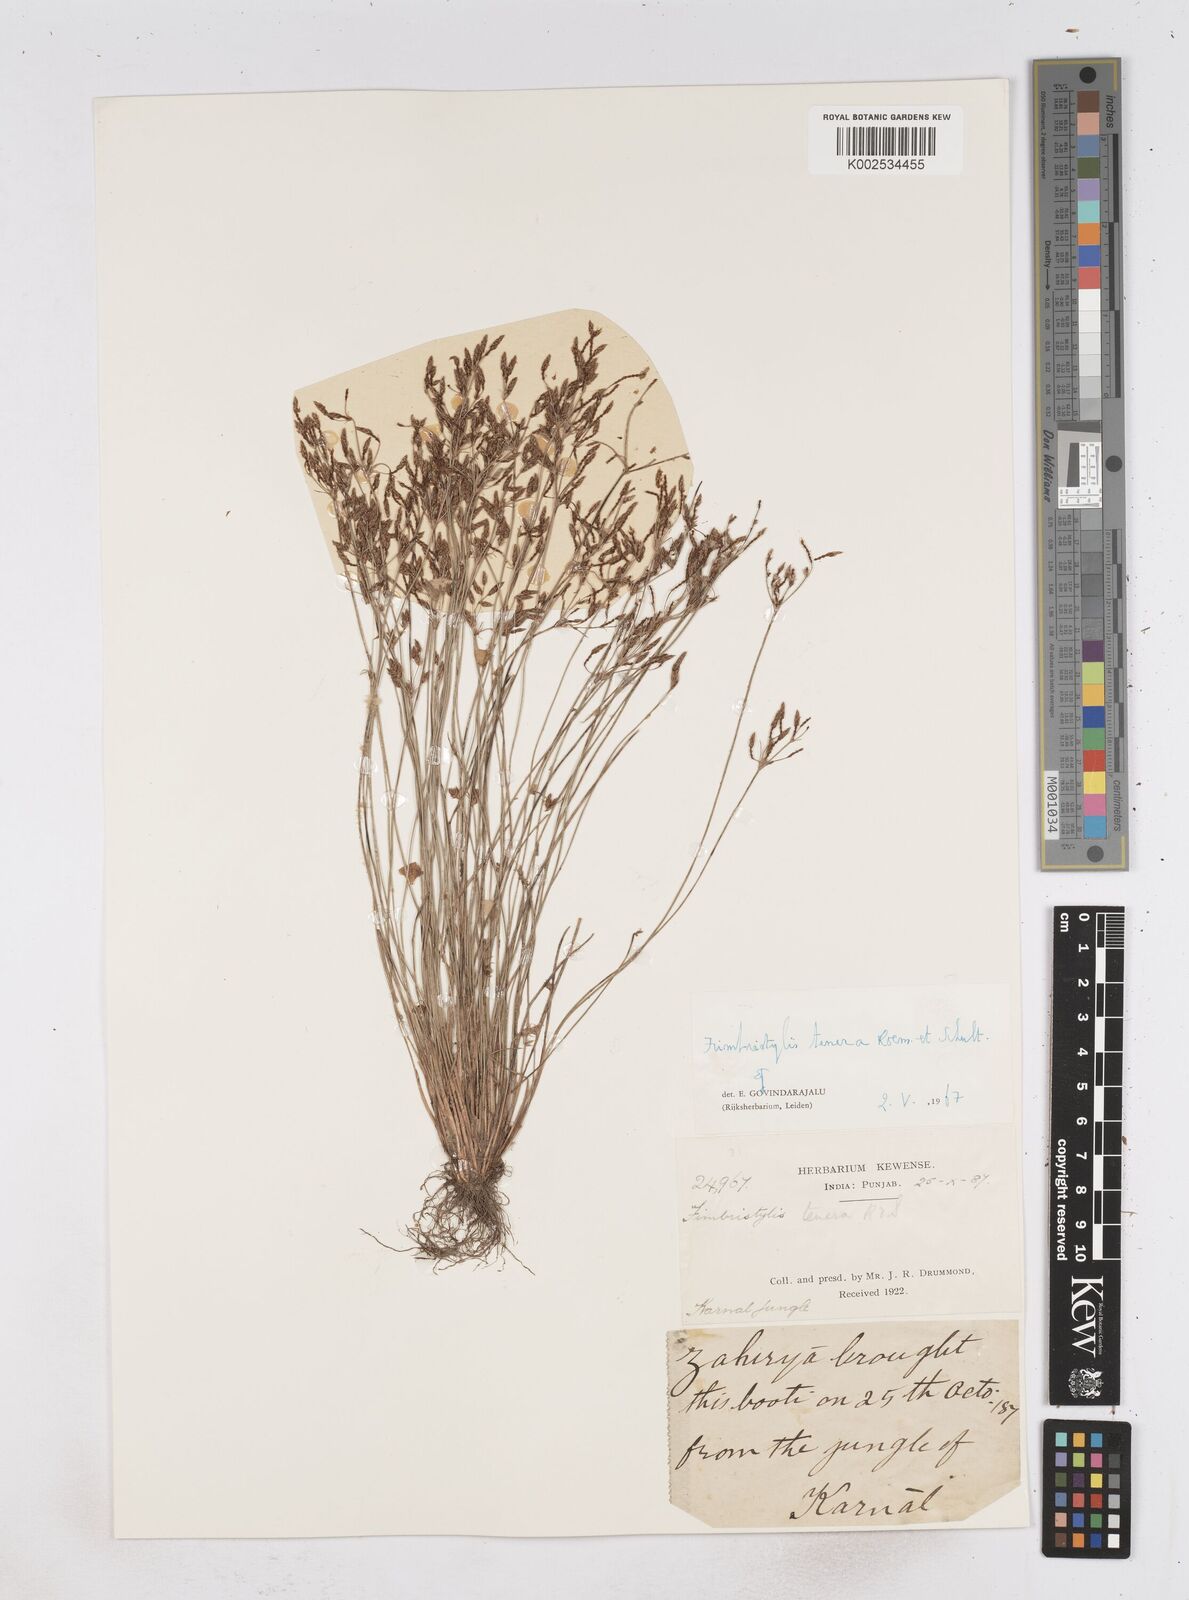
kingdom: Plantae
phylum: Tracheophyta
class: Liliopsida
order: Poales
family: Cyperaceae
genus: Fimbristylis
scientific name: Fimbristylis tenera
